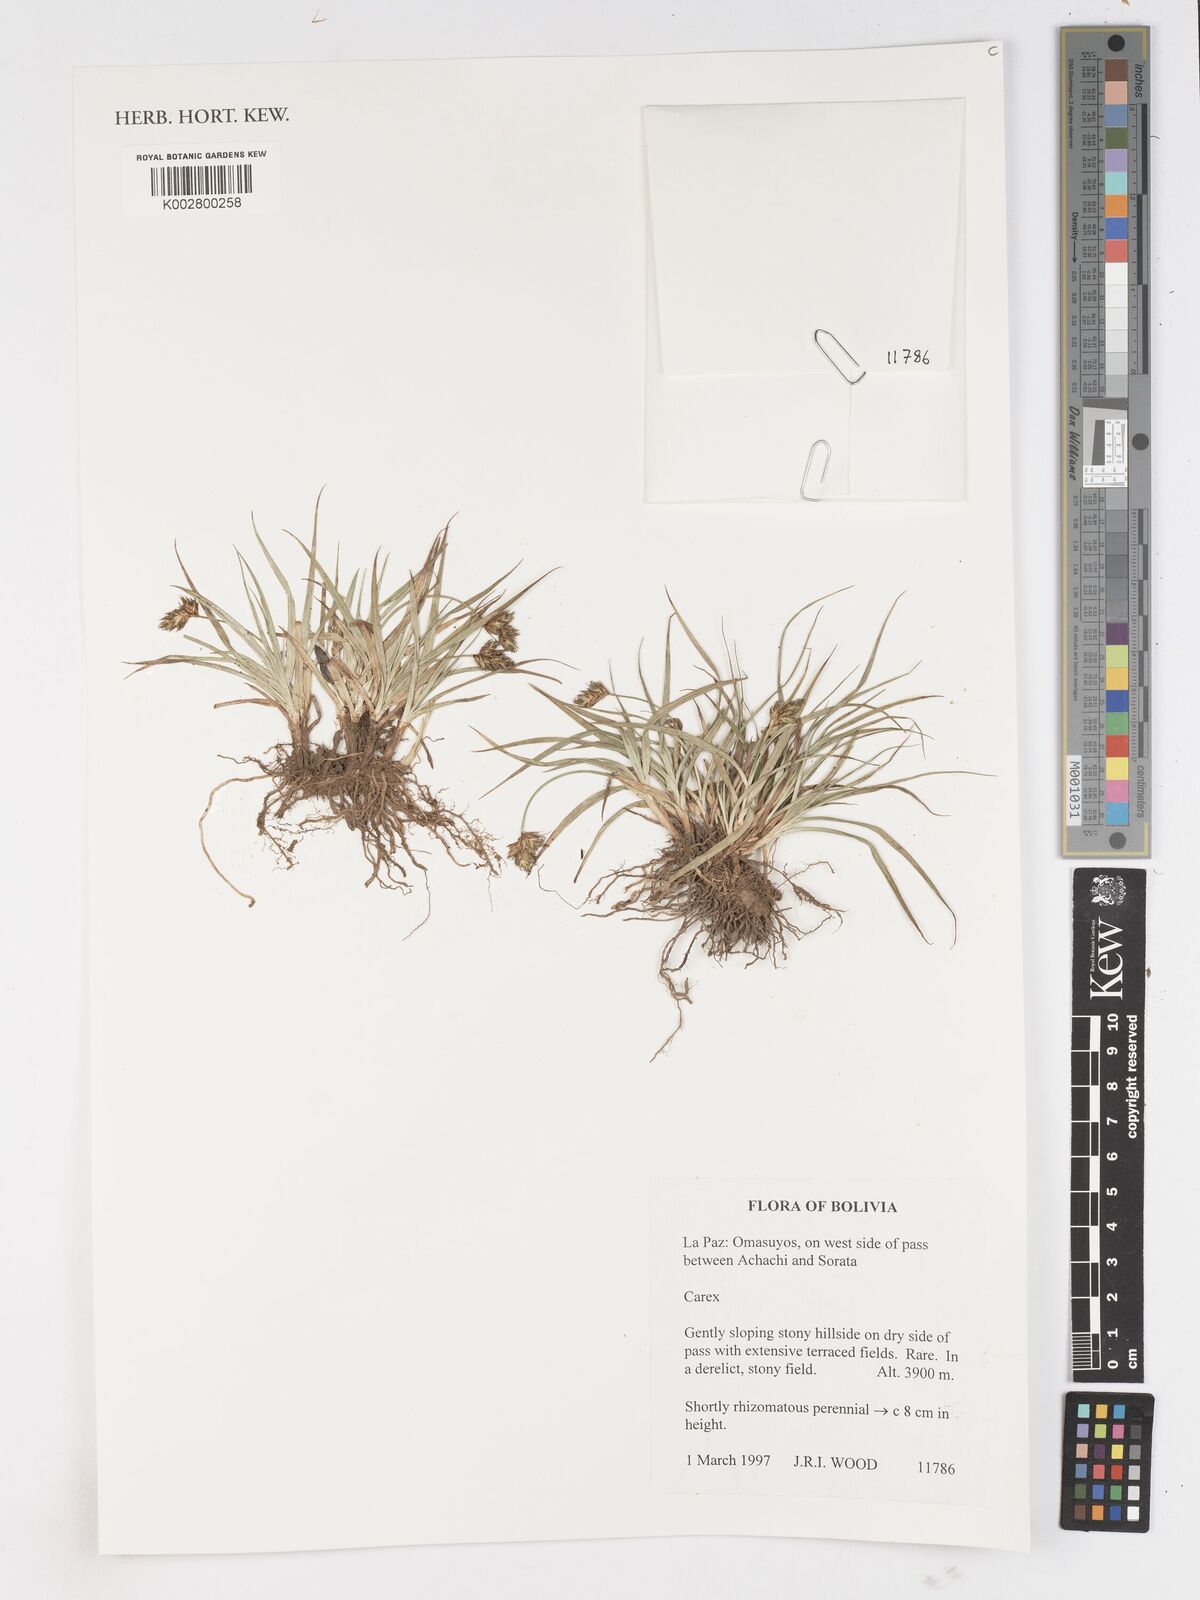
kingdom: Plantae
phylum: Tracheophyta
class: Liliopsida
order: Poales
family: Cyperaceae
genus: Carex
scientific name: Carex
